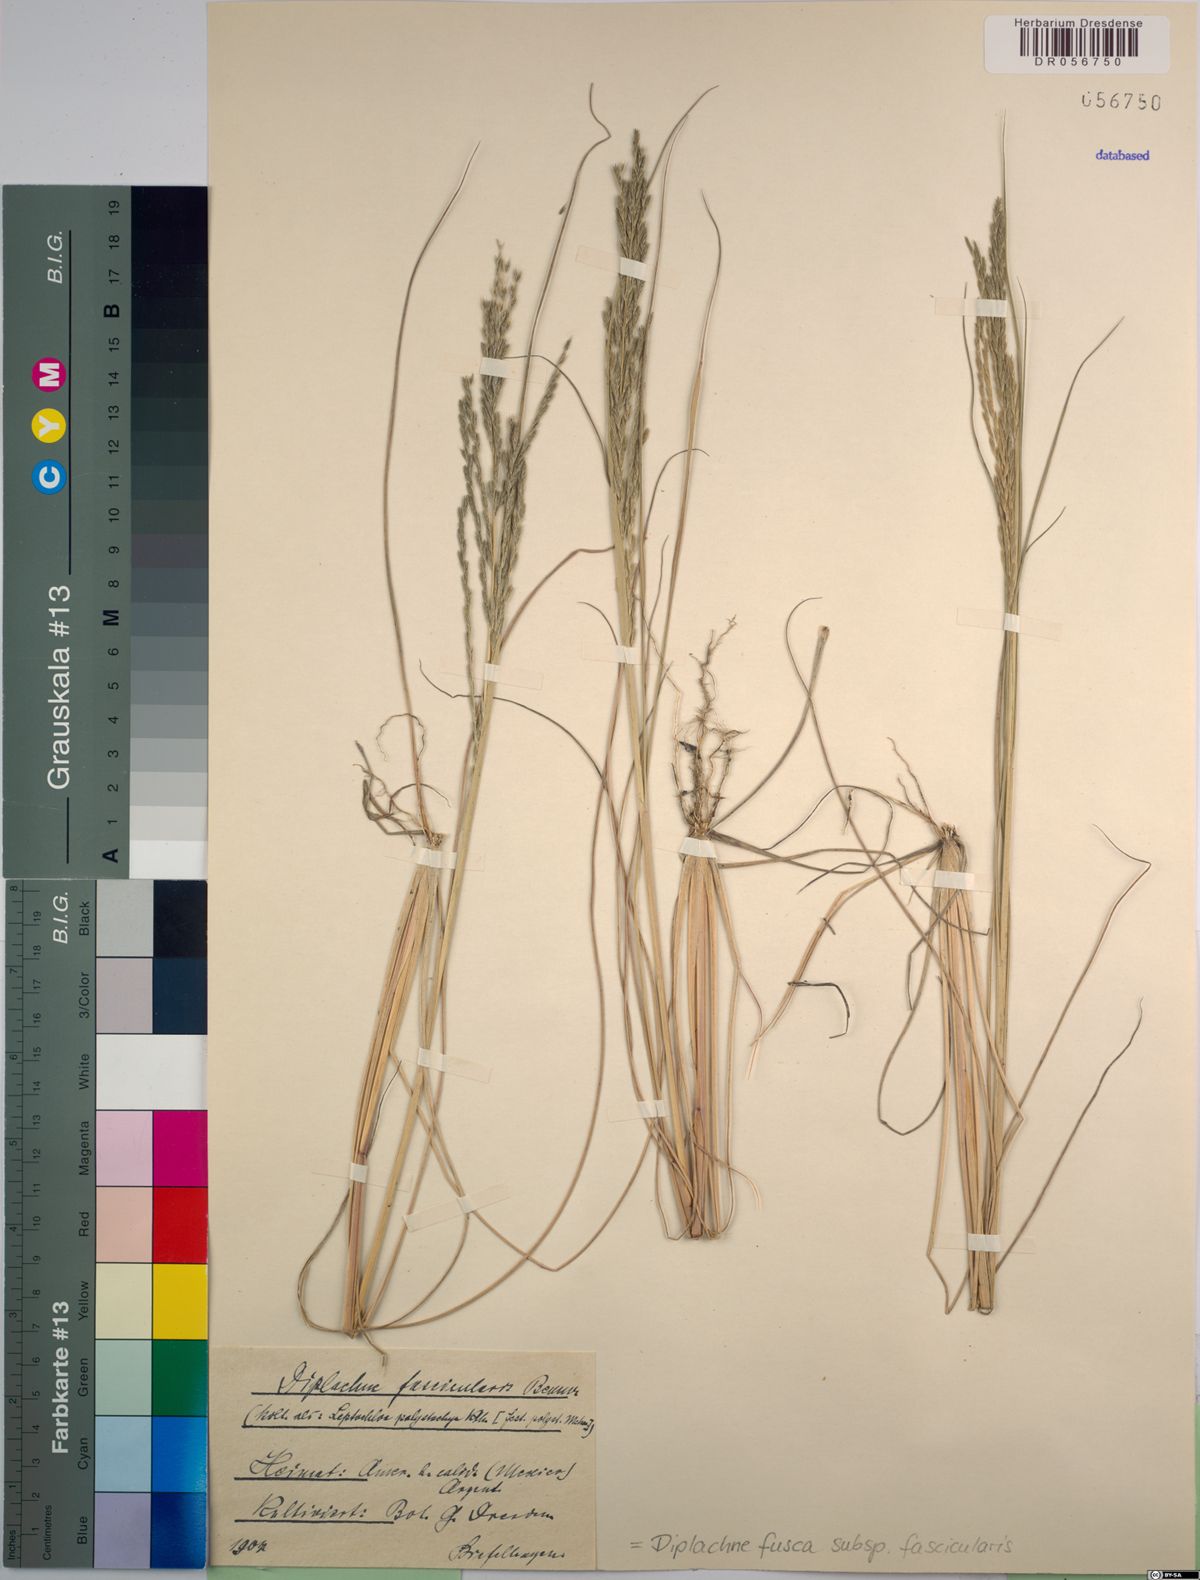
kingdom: Plantae
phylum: Tracheophyta
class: Liliopsida
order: Poales
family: Poaceae
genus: Diplachne
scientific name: Diplachne fusca
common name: Brown beetle grass
